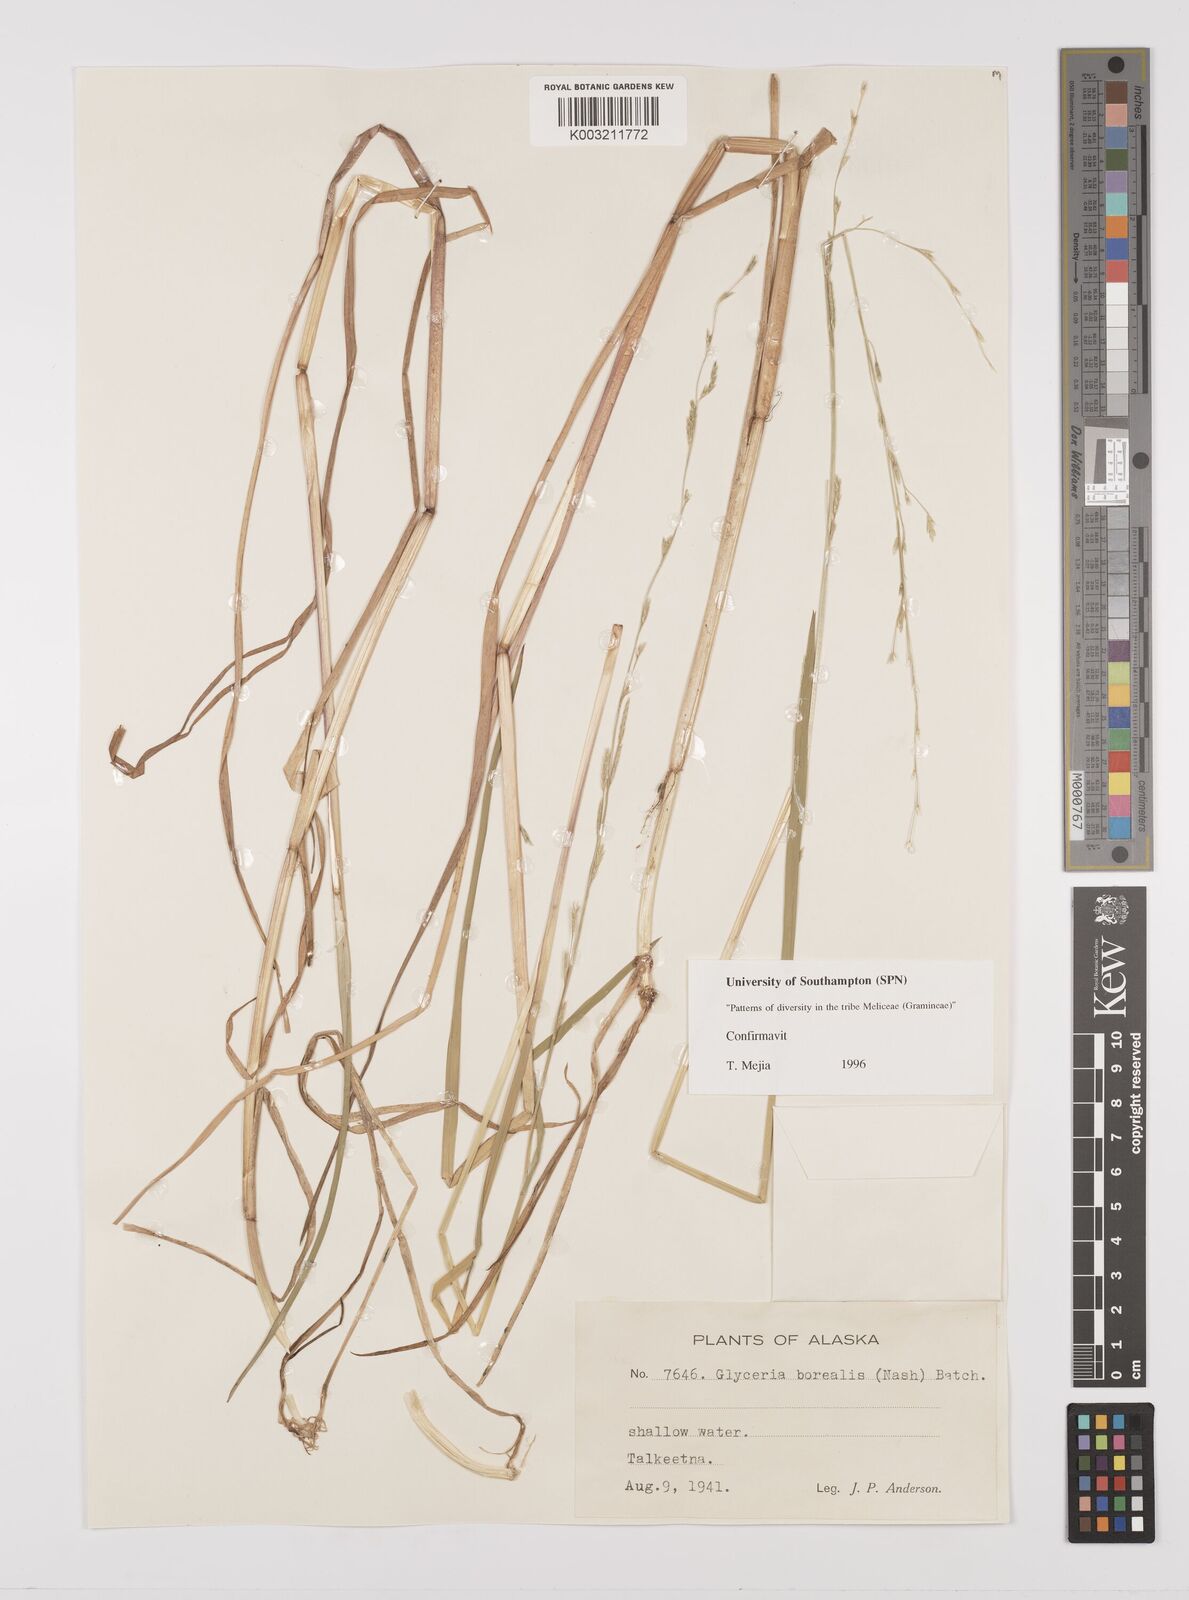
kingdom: Plantae
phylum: Tracheophyta
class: Liliopsida
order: Poales
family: Poaceae
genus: Glyceria
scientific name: Glyceria borealis
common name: Boreal glyceria
